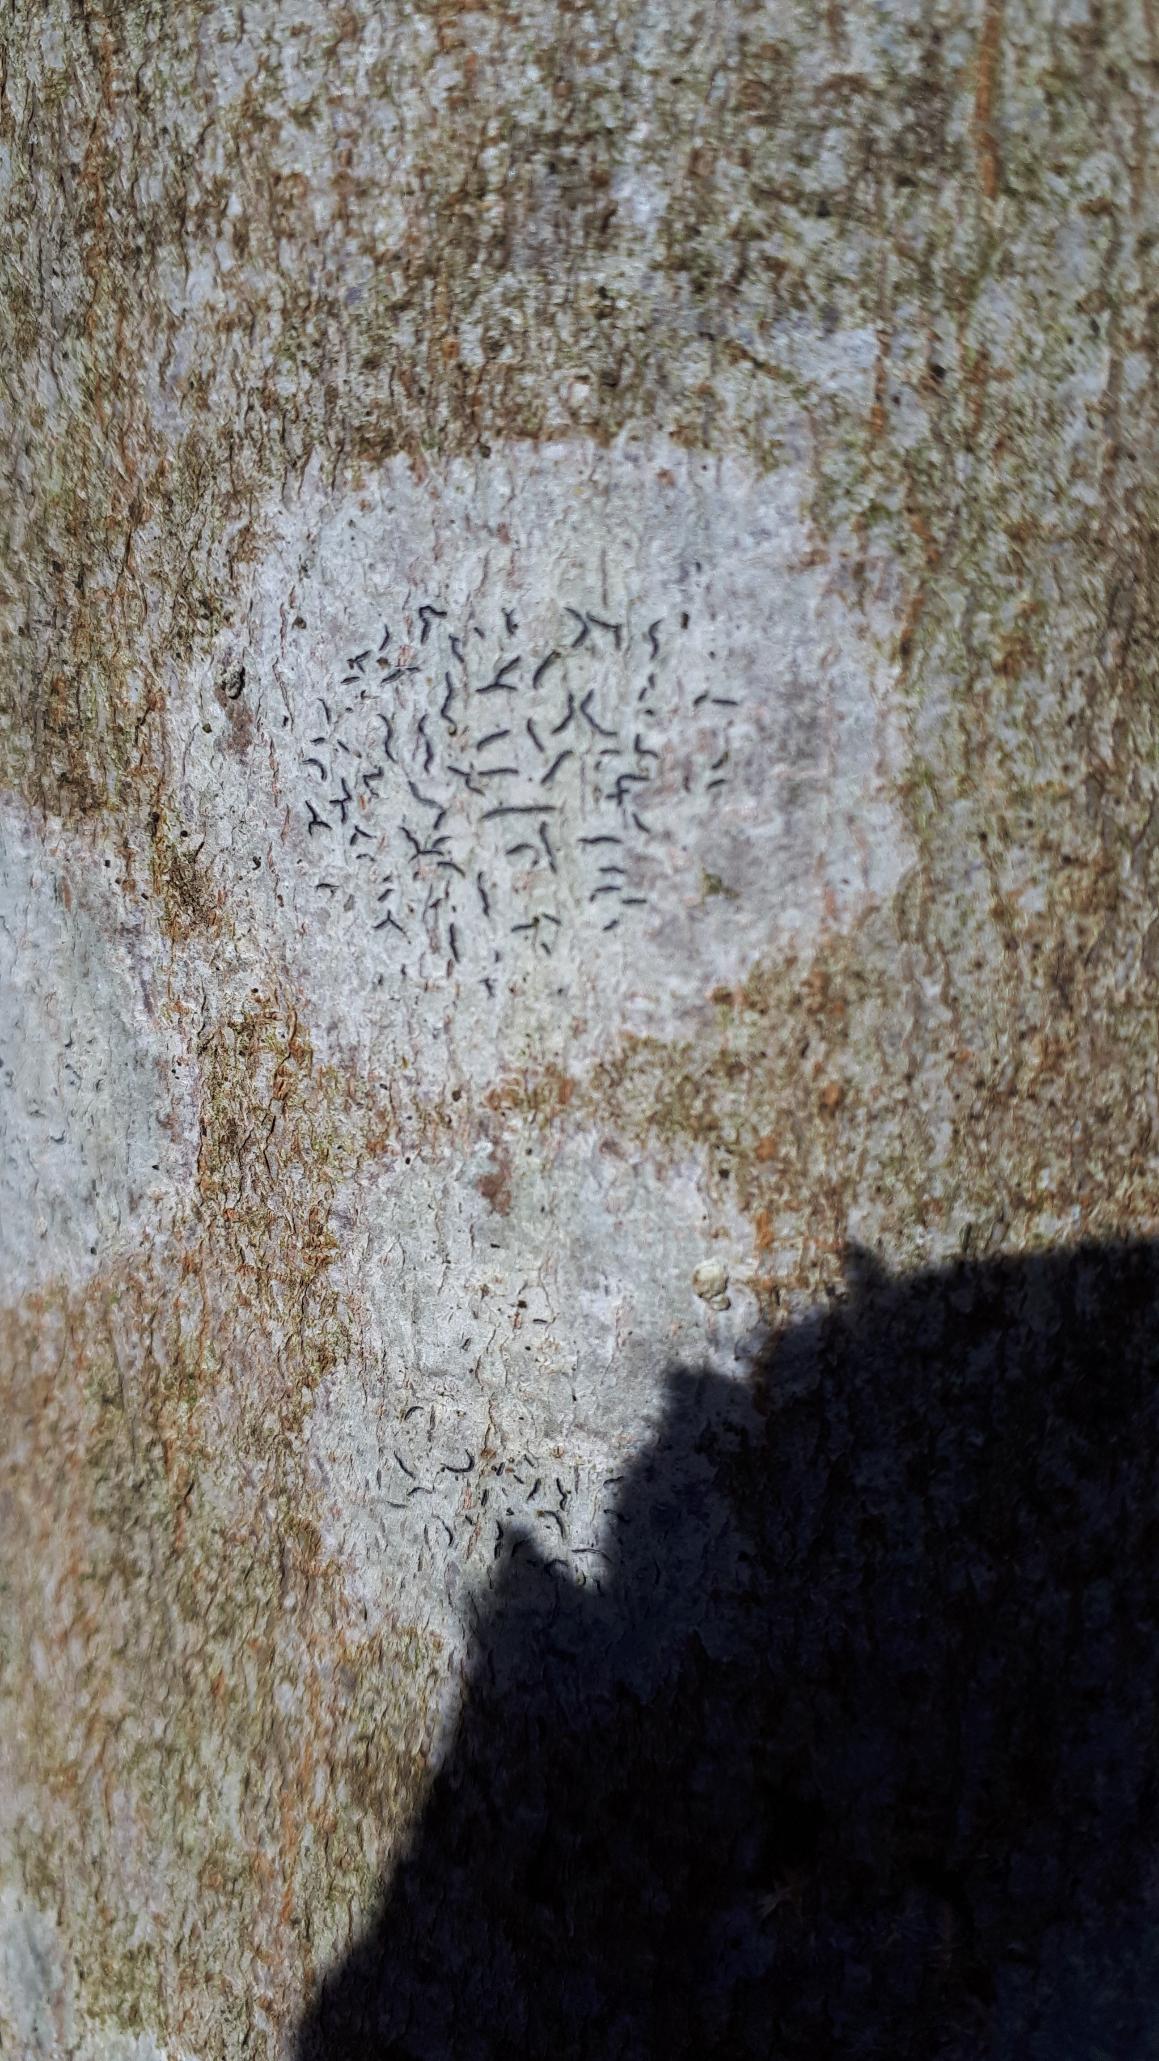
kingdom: Fungi
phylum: Ascomycota
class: Lecanoromycetes
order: Ostropales
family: Graphidaceae
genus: Graphis
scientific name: Graphis scripta
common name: Almindelig skriftlav
